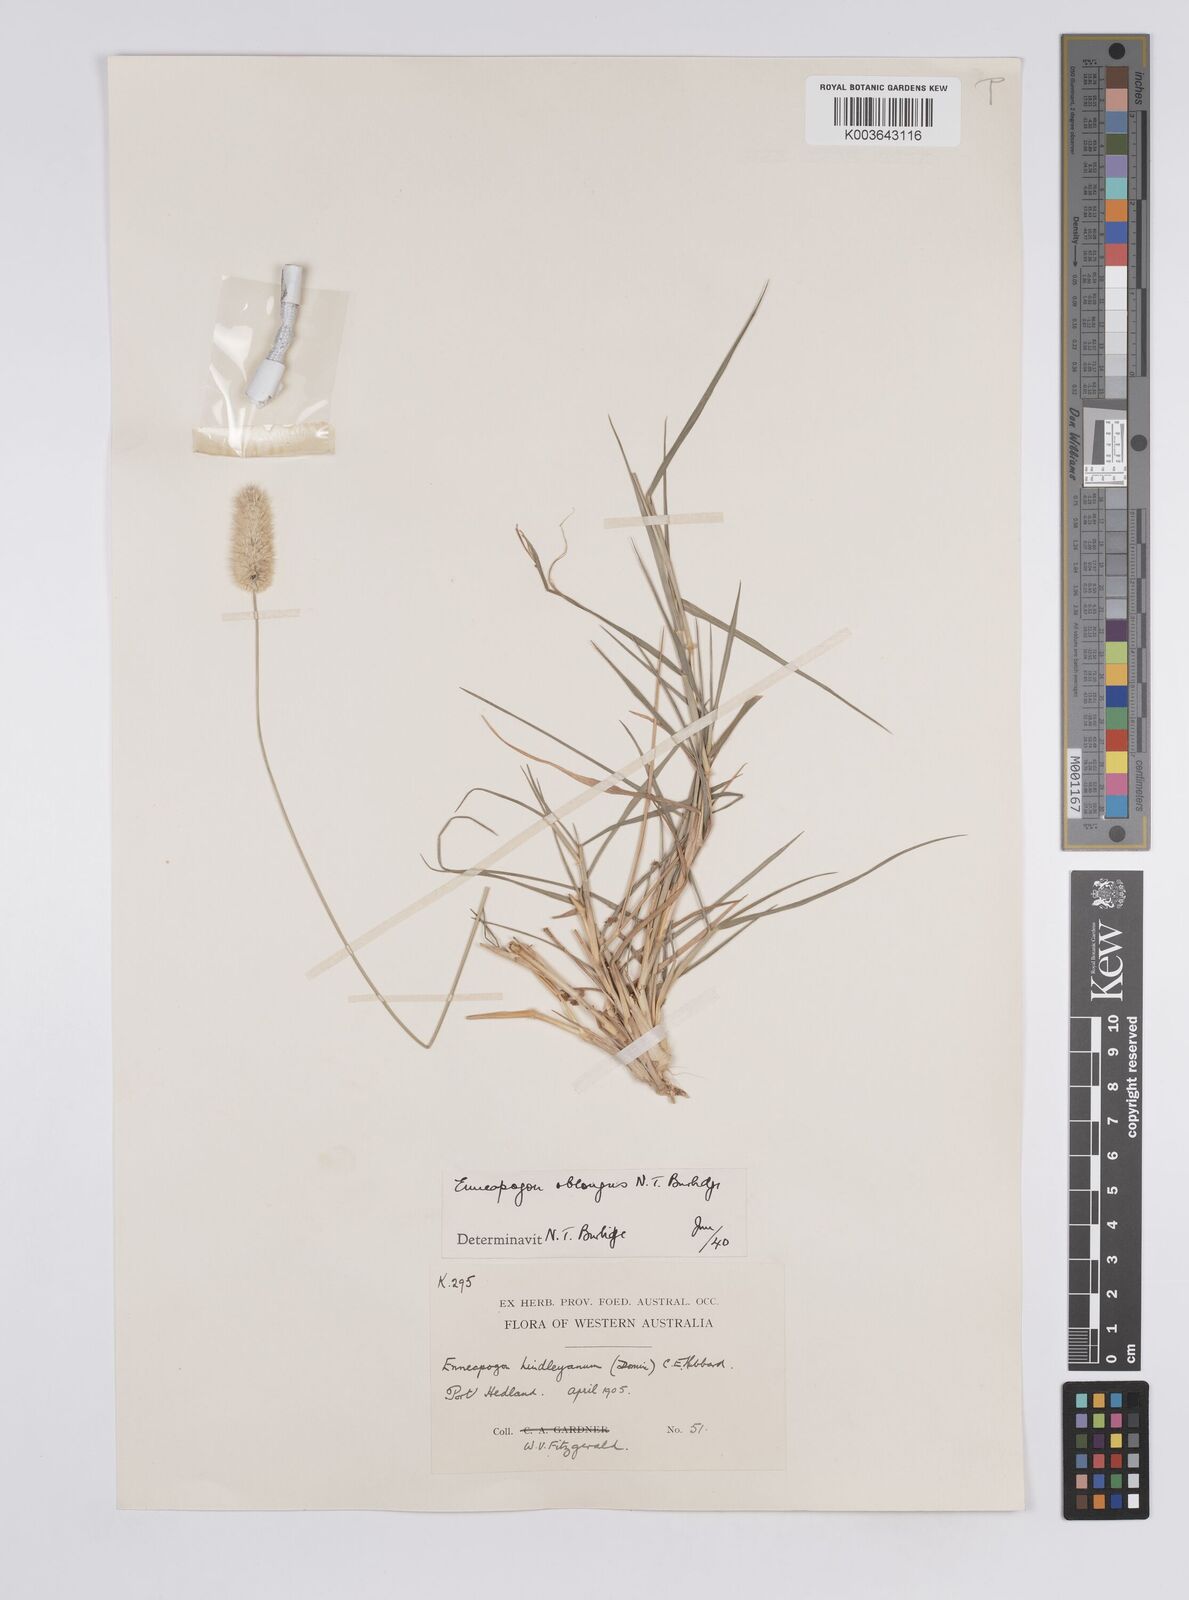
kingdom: Plantae
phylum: Tracheophyta
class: Liliopsida
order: Poales
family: Poaceae
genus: Enneapogon
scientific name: Enneapogon lindleyanus
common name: Conetop nineawn
